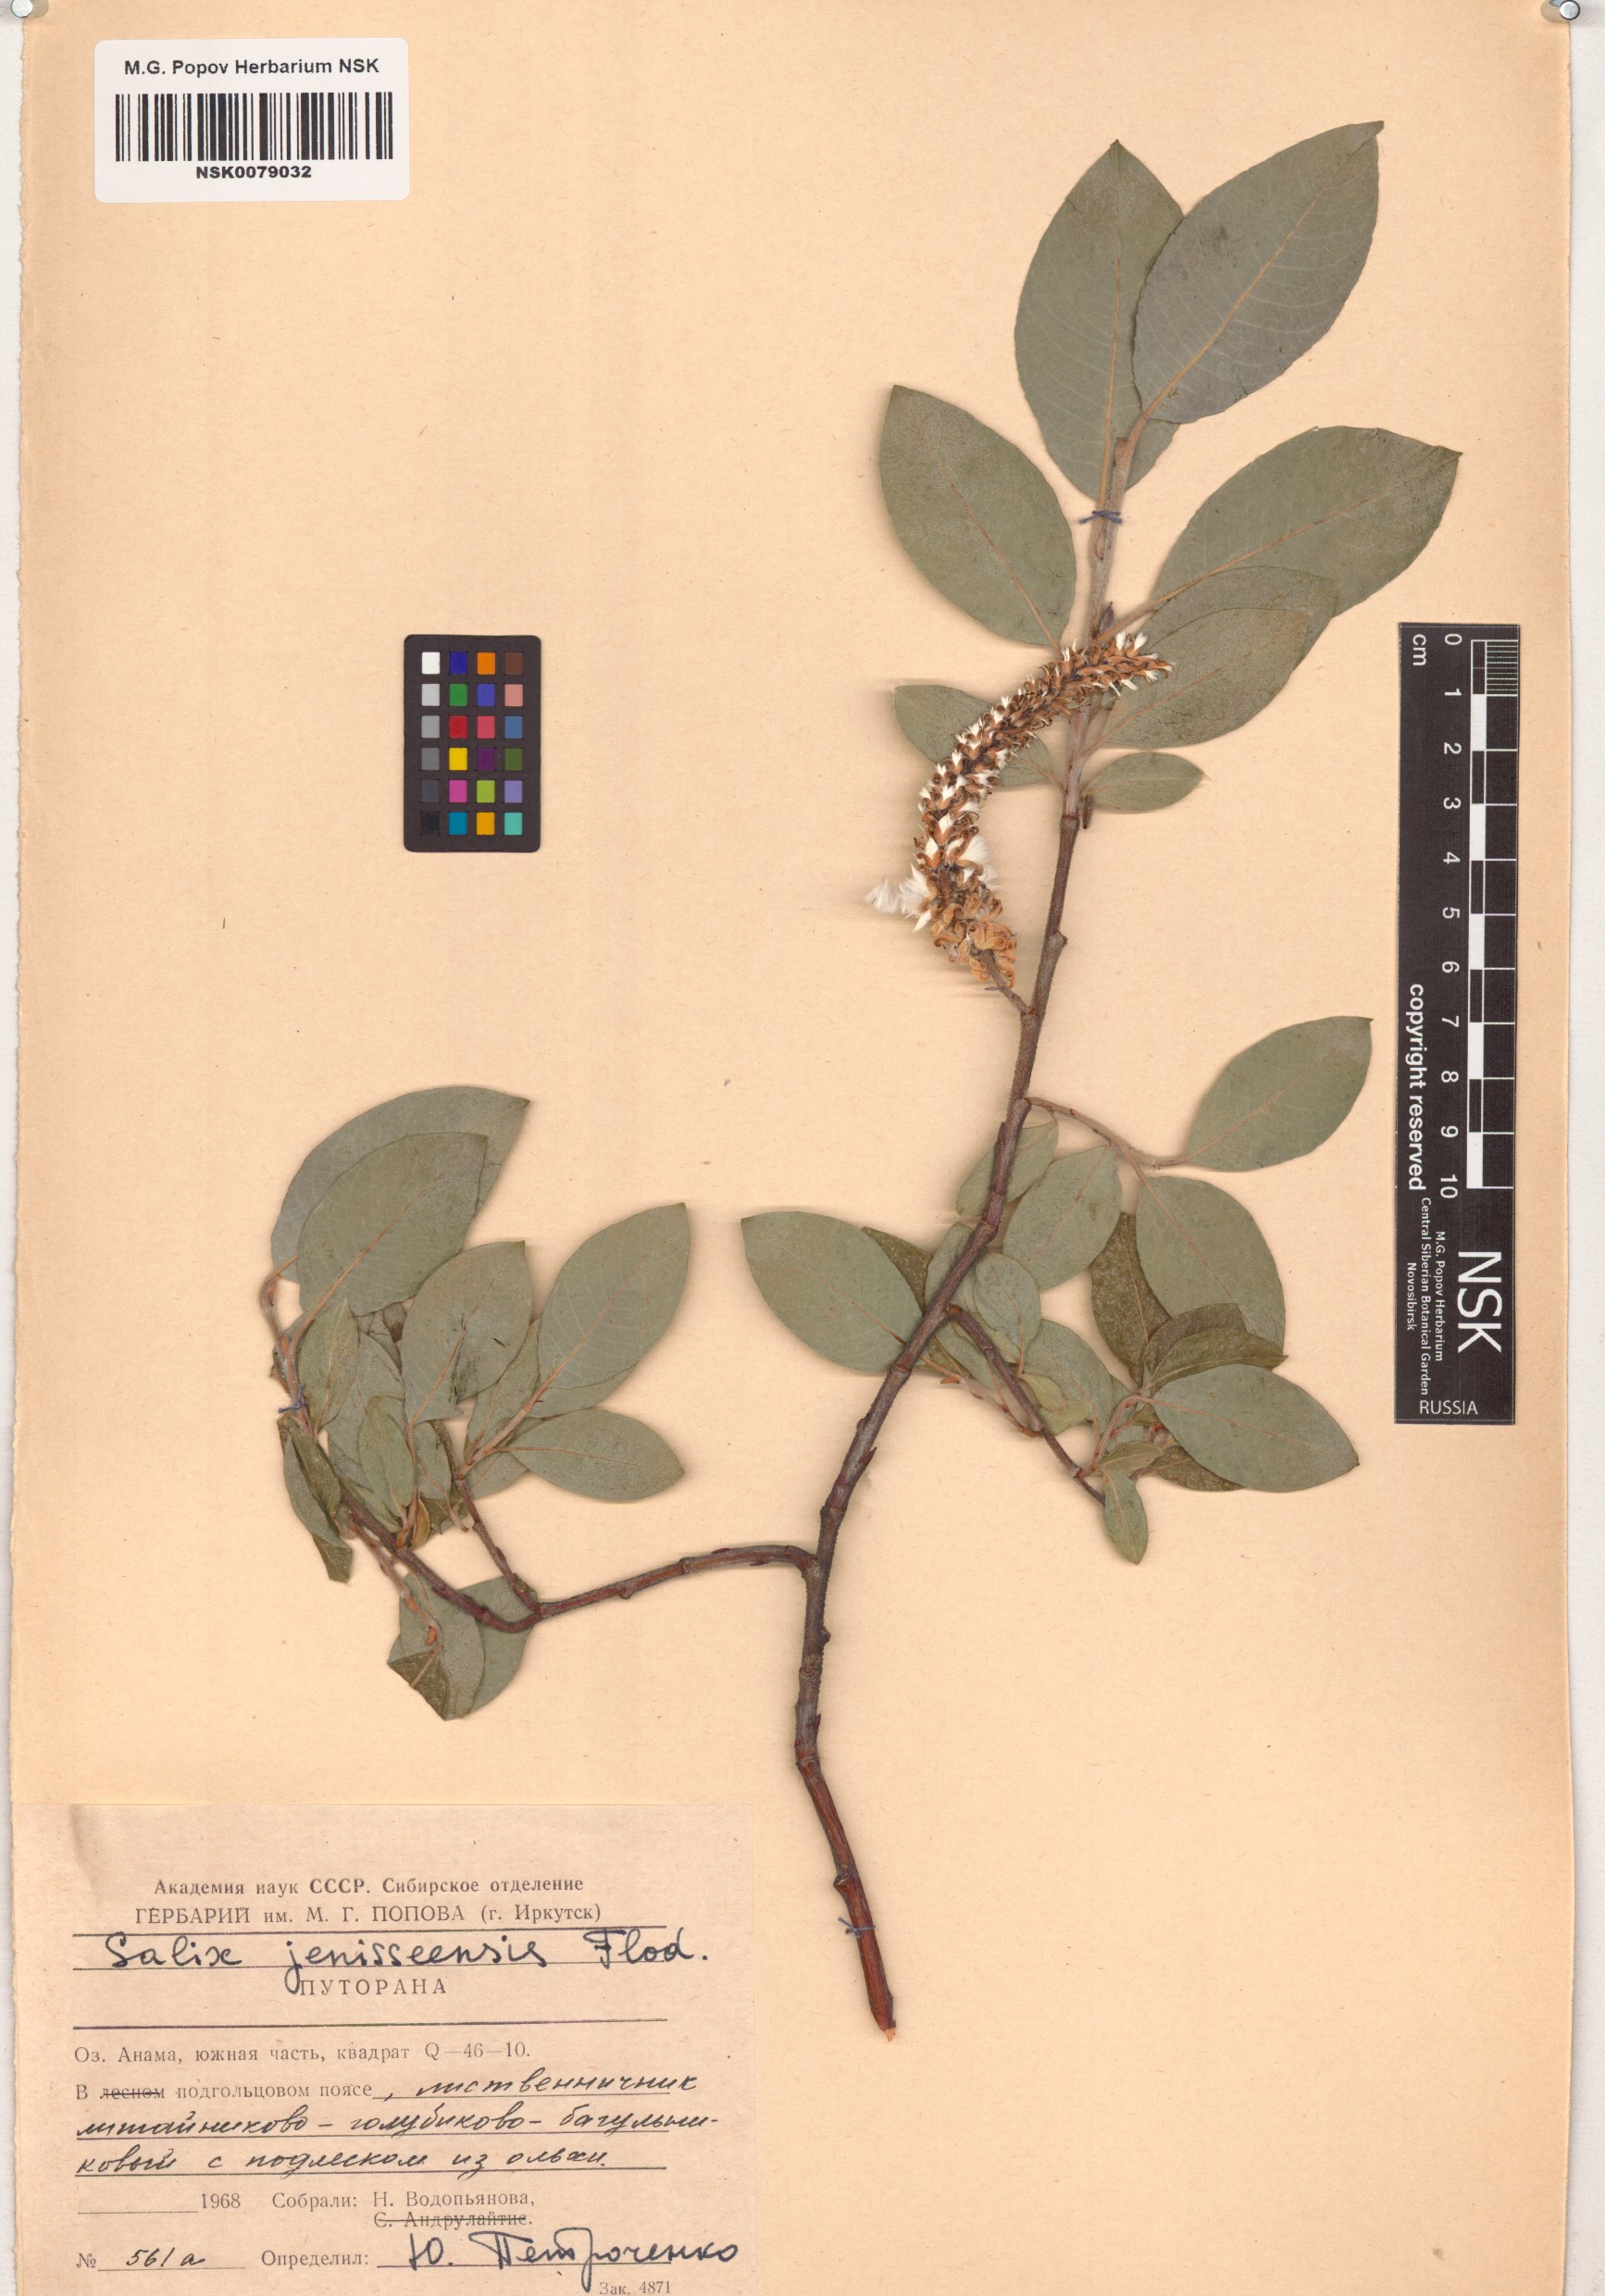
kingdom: Plantae
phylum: Tracheophyta
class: Magnoliopsida
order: Malpighiales
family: Salicaceae
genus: Salix
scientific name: Salix jenisseensis
